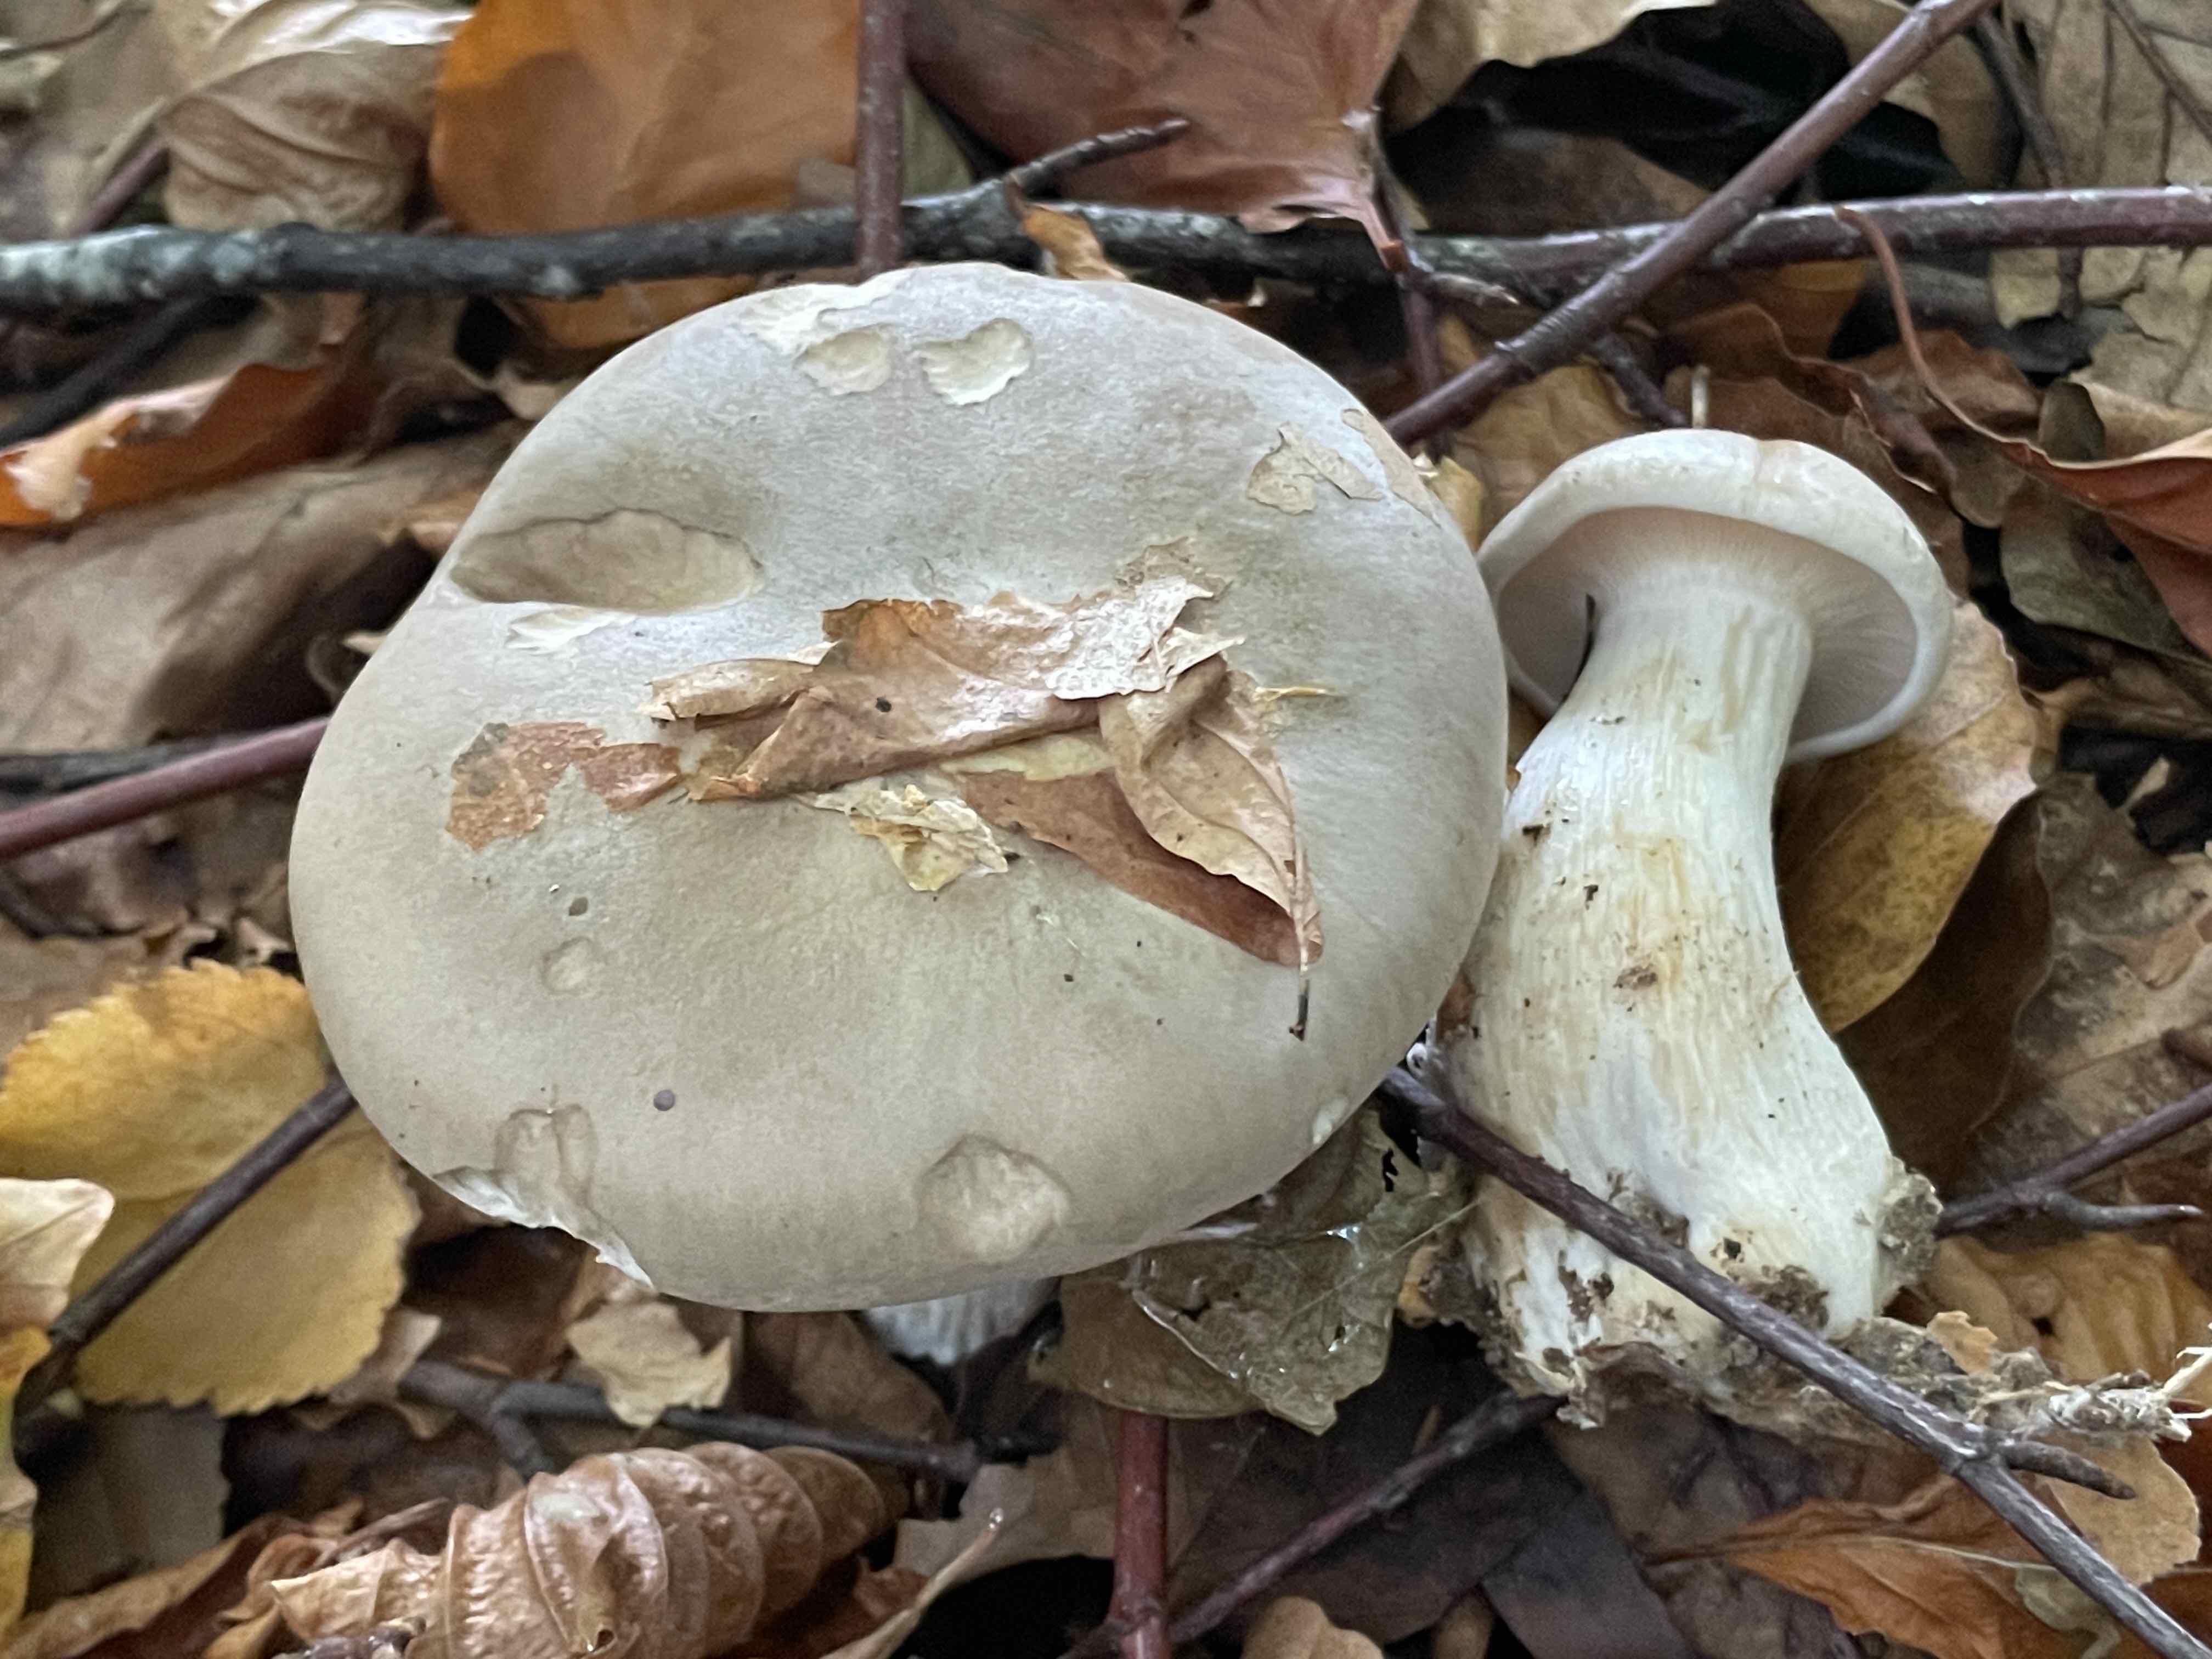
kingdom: Fungi
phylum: Basidiomycota
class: Agaricomycetes
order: Agaricales
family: Tricholomataceae
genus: Clitocybe
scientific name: Clitocybe nebularis
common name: tåge-tragthat
